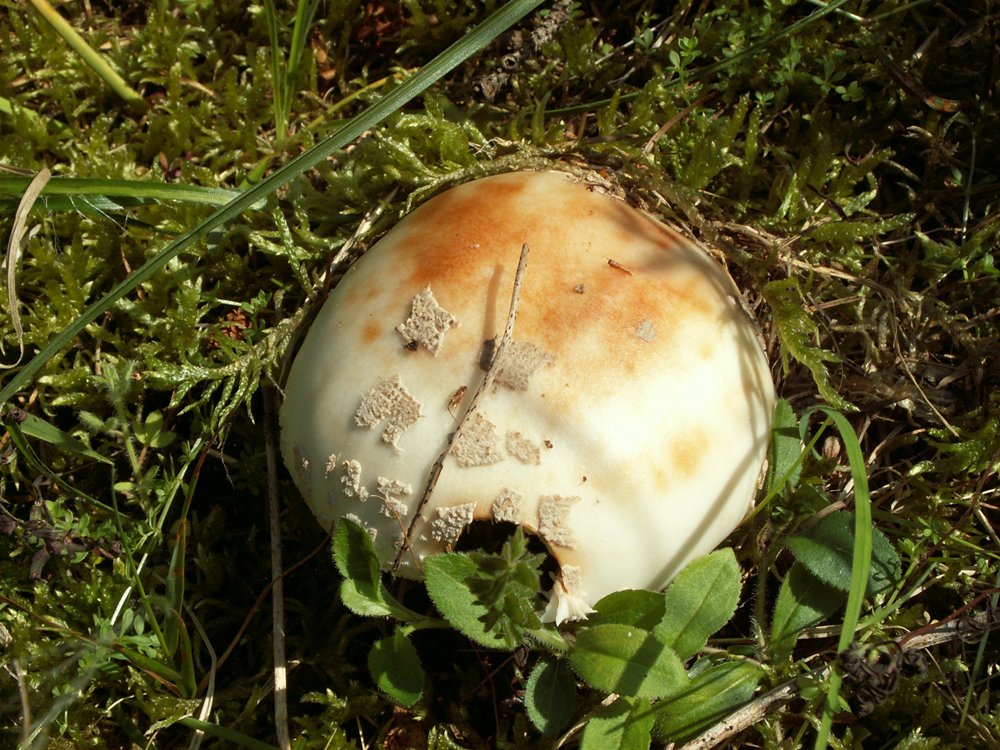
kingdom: Fungi
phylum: Basidiomycota
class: Agaricomycetes
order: Agaricales
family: Amanitaceae
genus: Amanita
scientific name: Amanita rubescens
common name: rødmende fluesvamp
